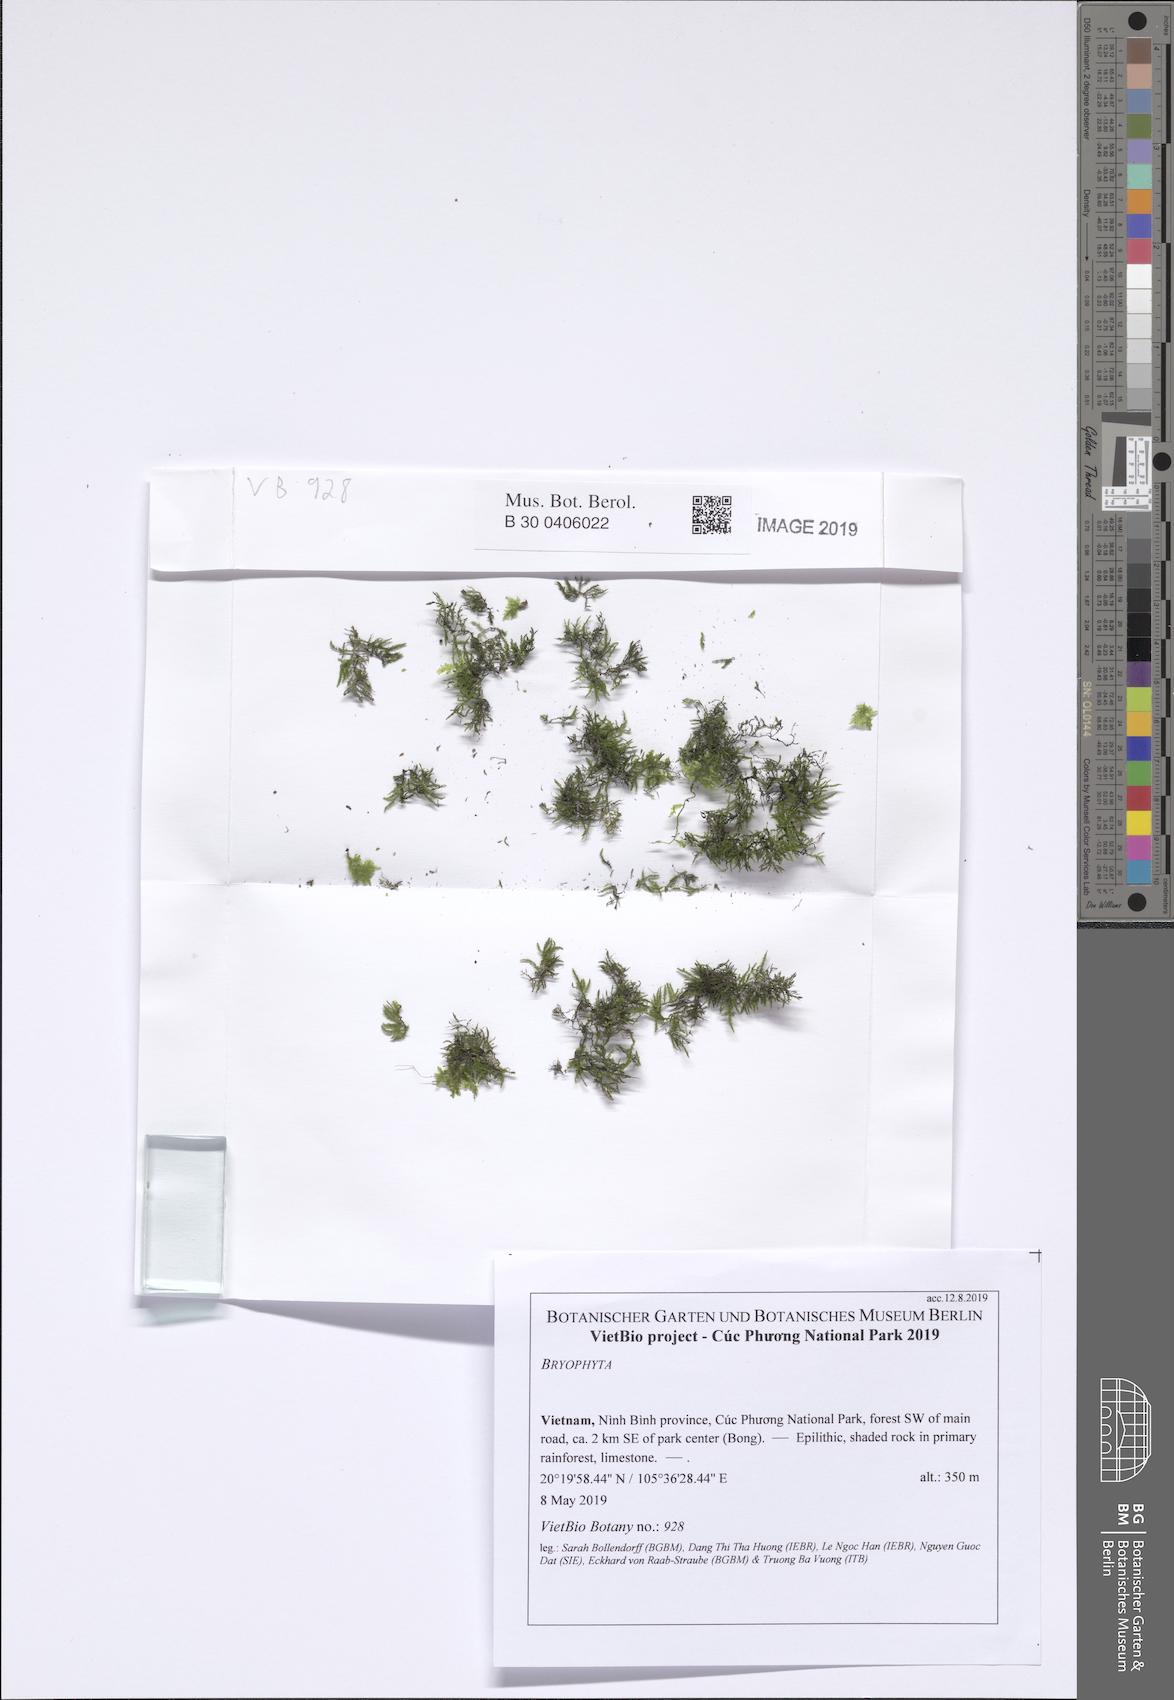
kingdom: Plantae
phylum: Bryophyta
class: Bryopsida
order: Hypnales
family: Brachytheciaceae
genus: Claopodium
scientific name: Claopodium aciculum
